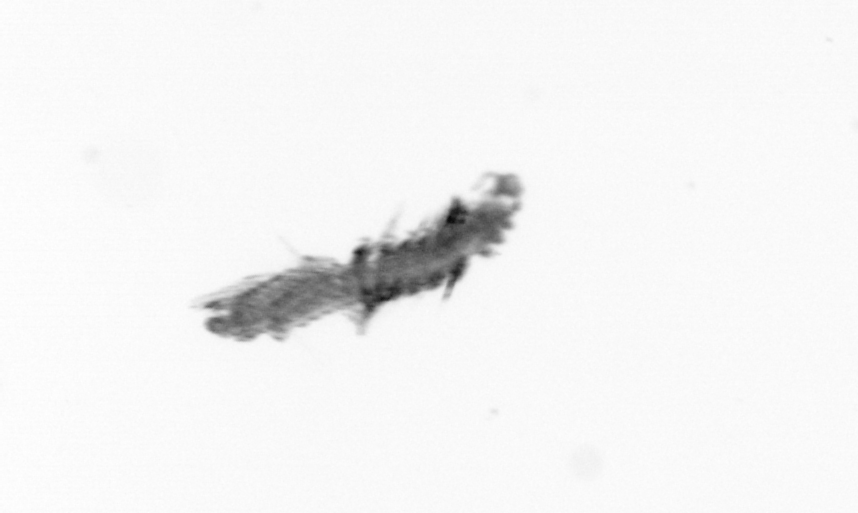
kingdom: Animalia
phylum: Annelida
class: Polychaeta
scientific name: Polychaeta
